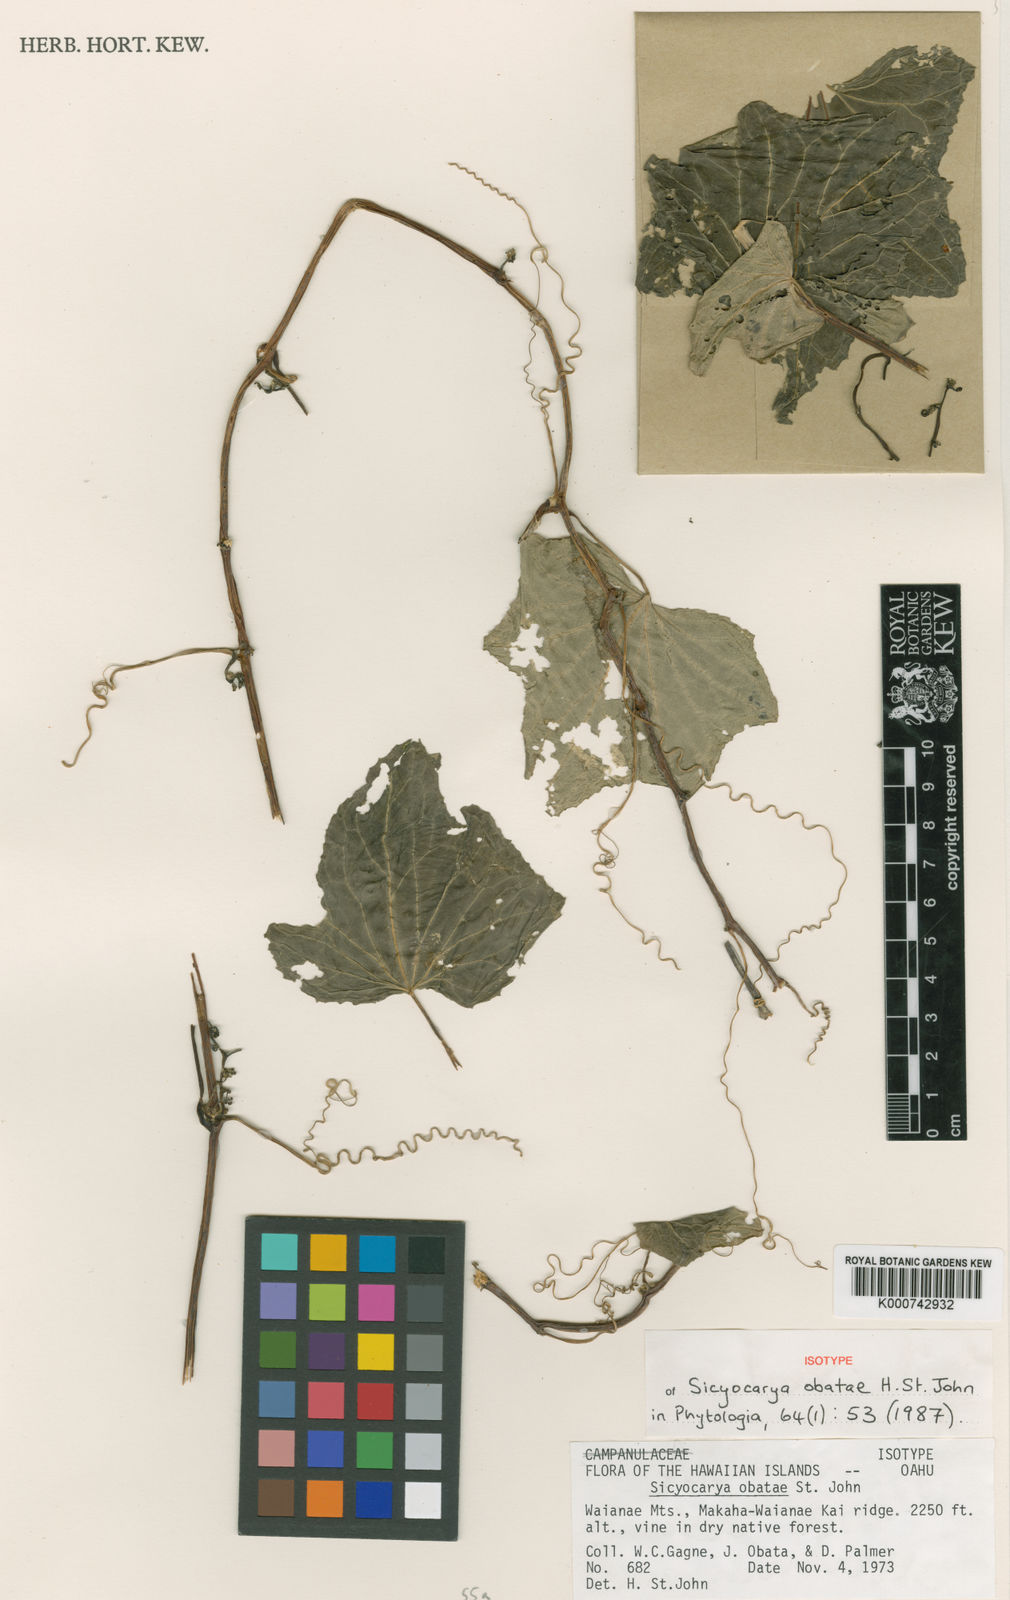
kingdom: Plantae
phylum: Tracheophyta
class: Magnoliopsida
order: Cucurbitales
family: Cucurbitaceae
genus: Sicyos
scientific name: Sicyos lanceoloideus
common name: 'anunu
